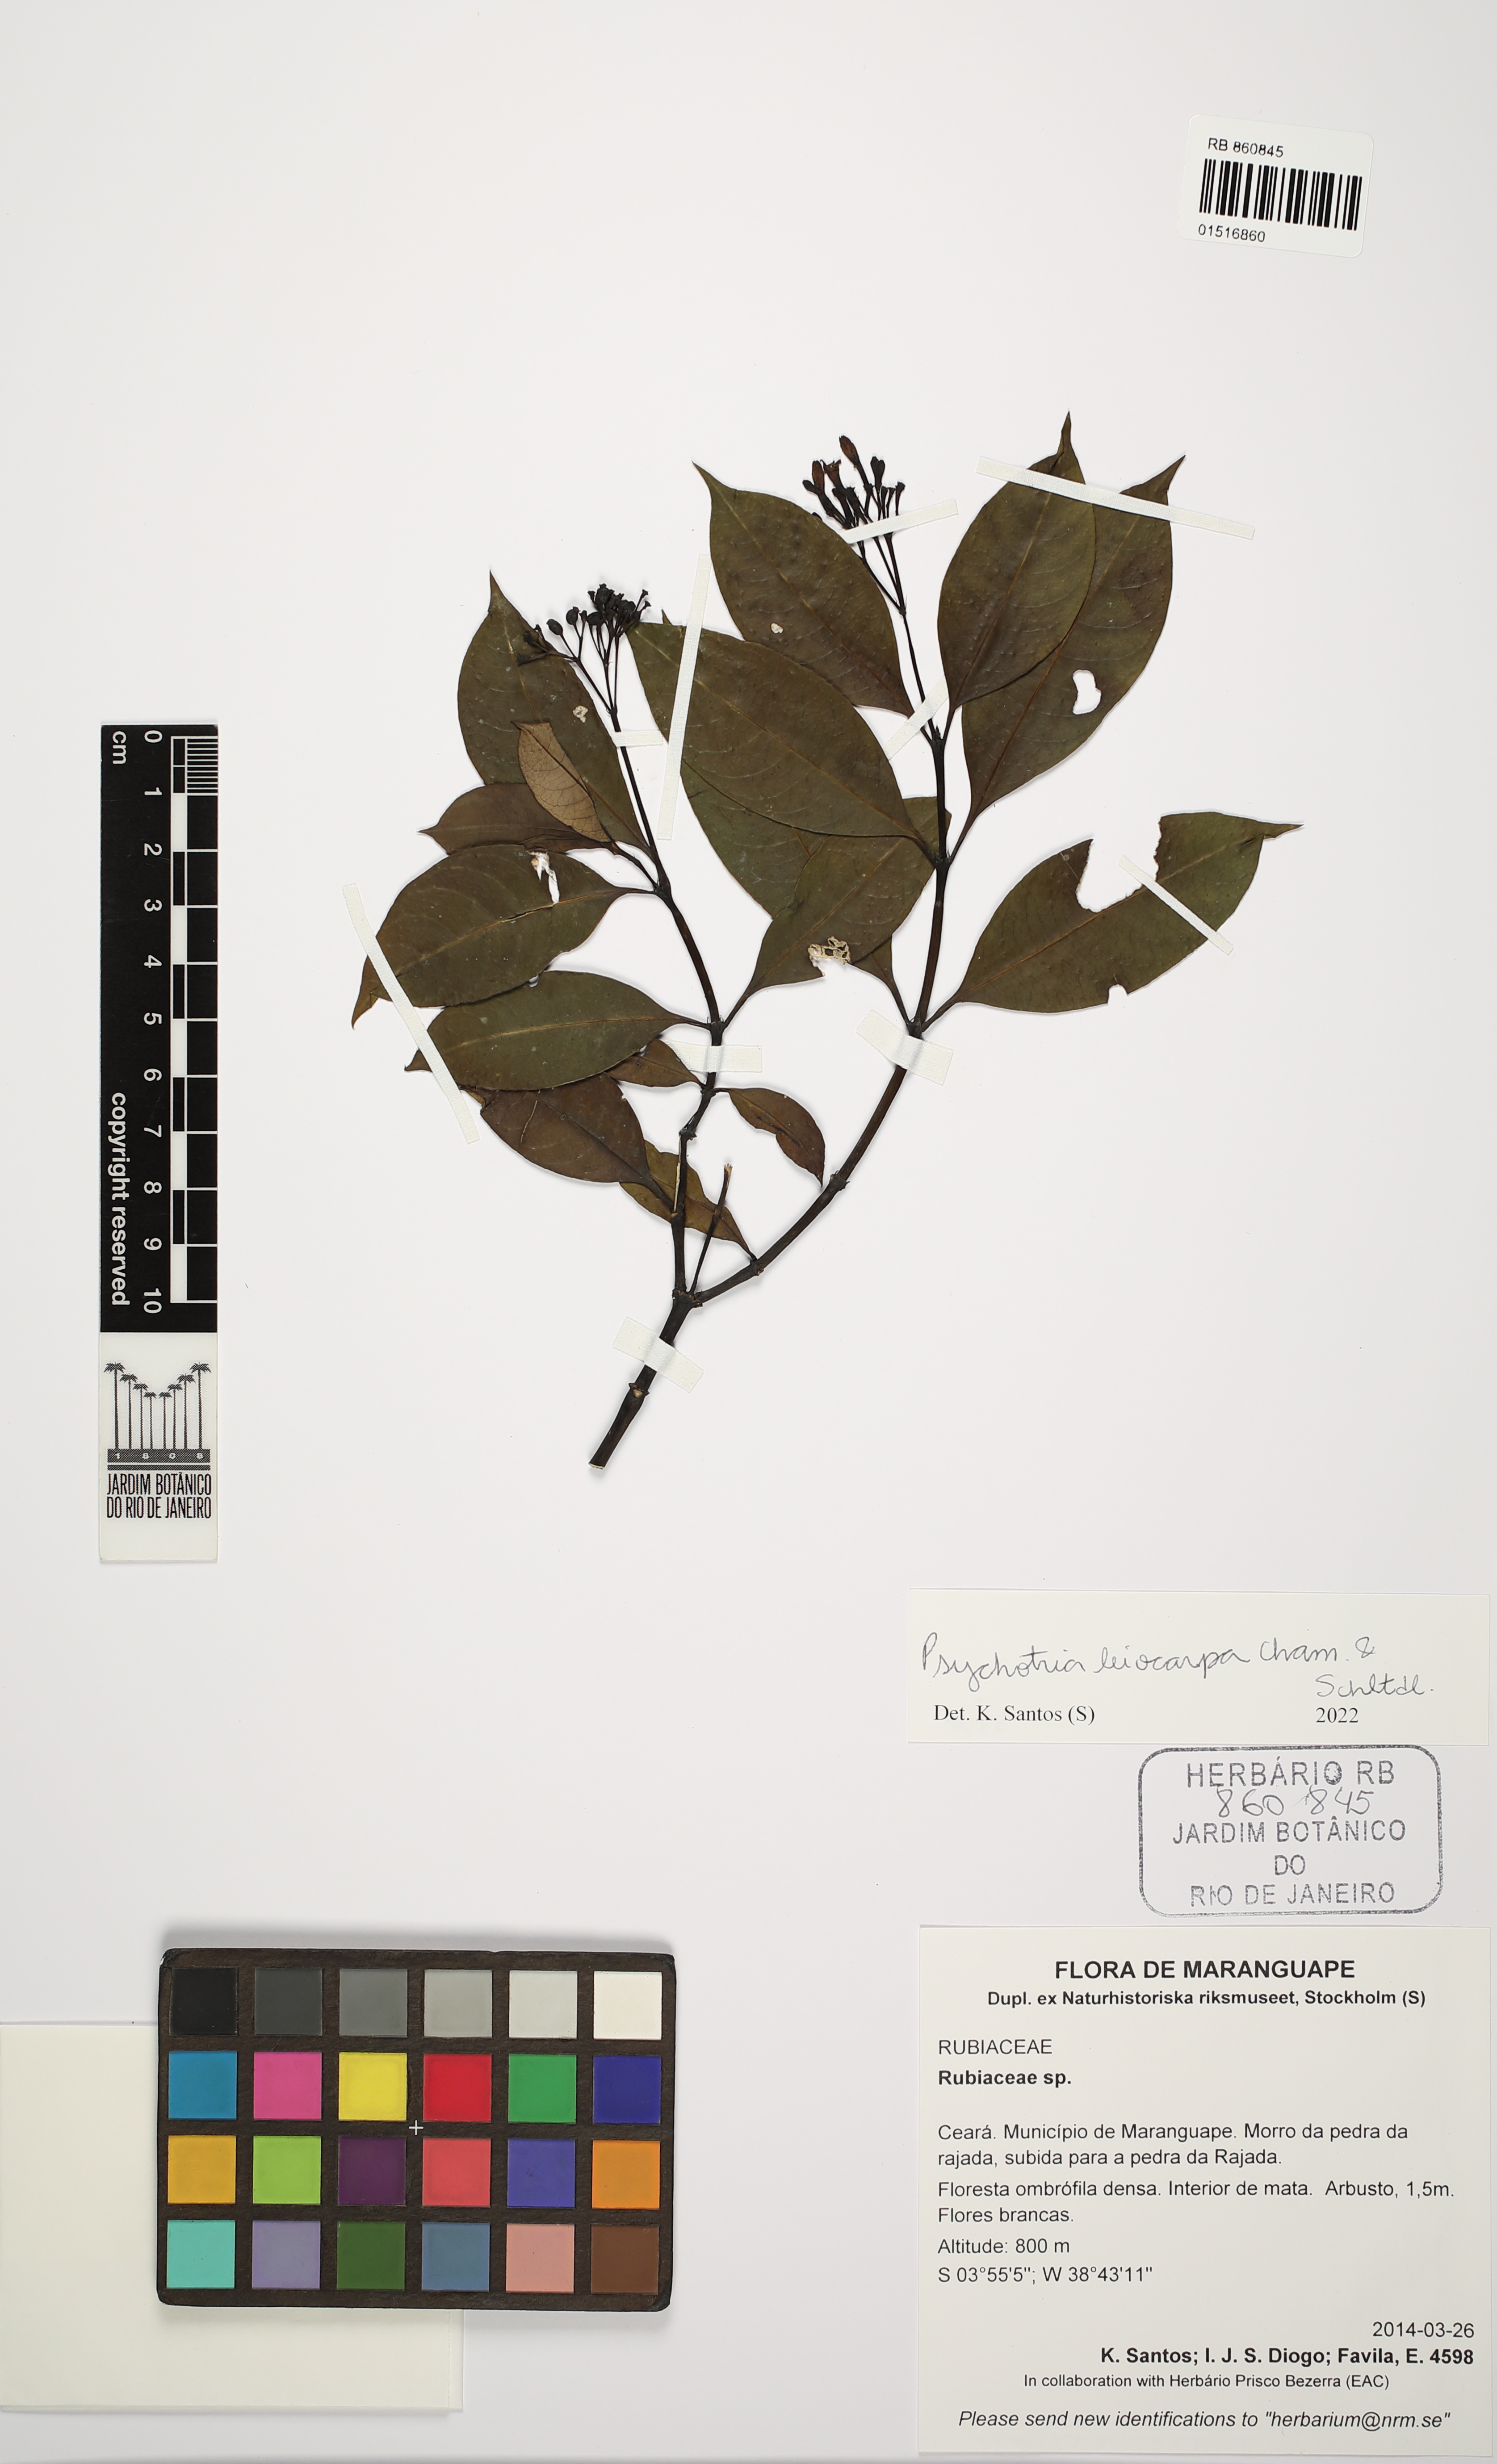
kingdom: Plantae
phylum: Tracheophyta
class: Magnoliopsida
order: Gentianales
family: Rubiaceae
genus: Psychotria
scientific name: Psychotria leiocarpa
